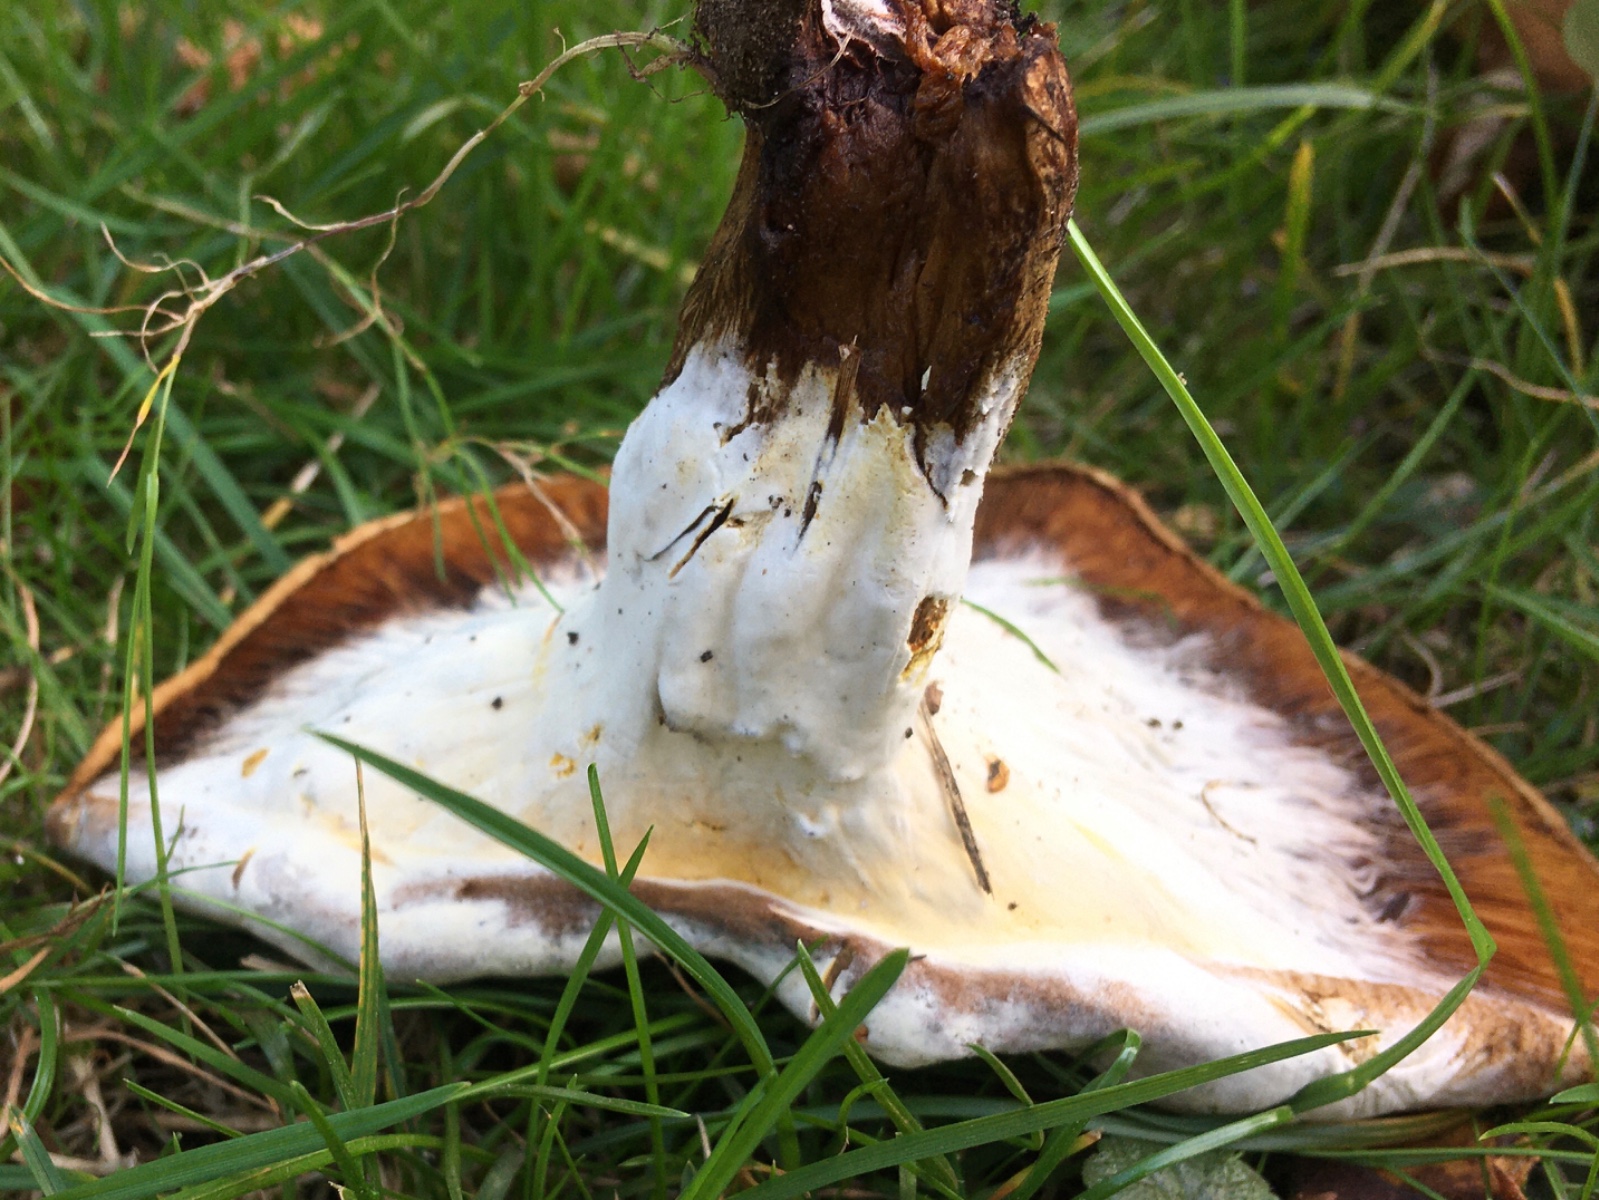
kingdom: Fungi
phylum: Ascomycota
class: Sordariomycetes
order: Hypocreales
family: Hypocreaceae
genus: Hypomyces
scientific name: Hypomyces chrysospermus
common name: gulskimmel-snylteskorpe
